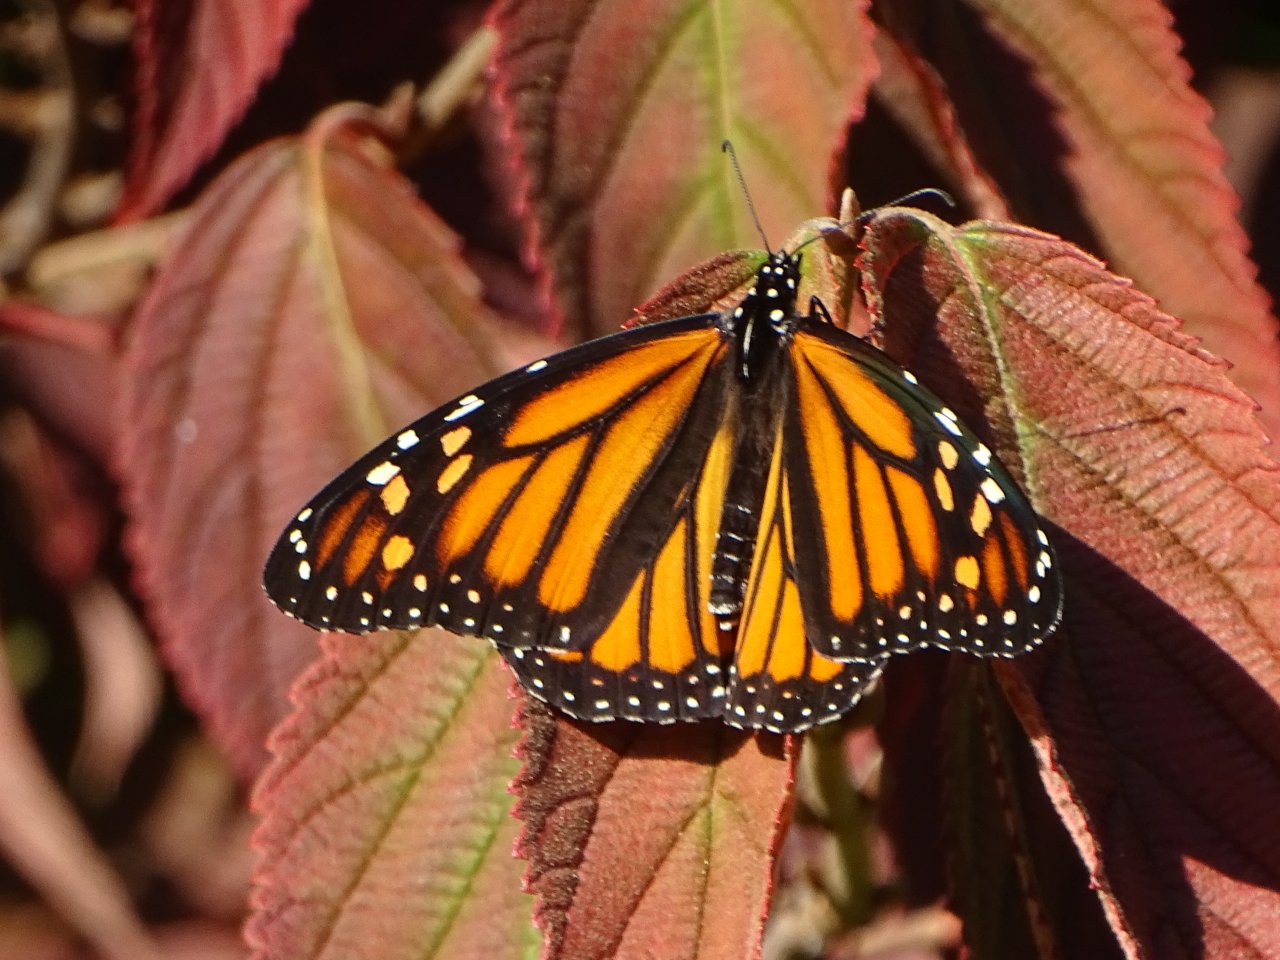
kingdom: Animalia
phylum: Arthropoda
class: Insecta
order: Lepidoptera
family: Nymphalidae
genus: Danaus
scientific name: Danaus plexippus
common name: Monarch
